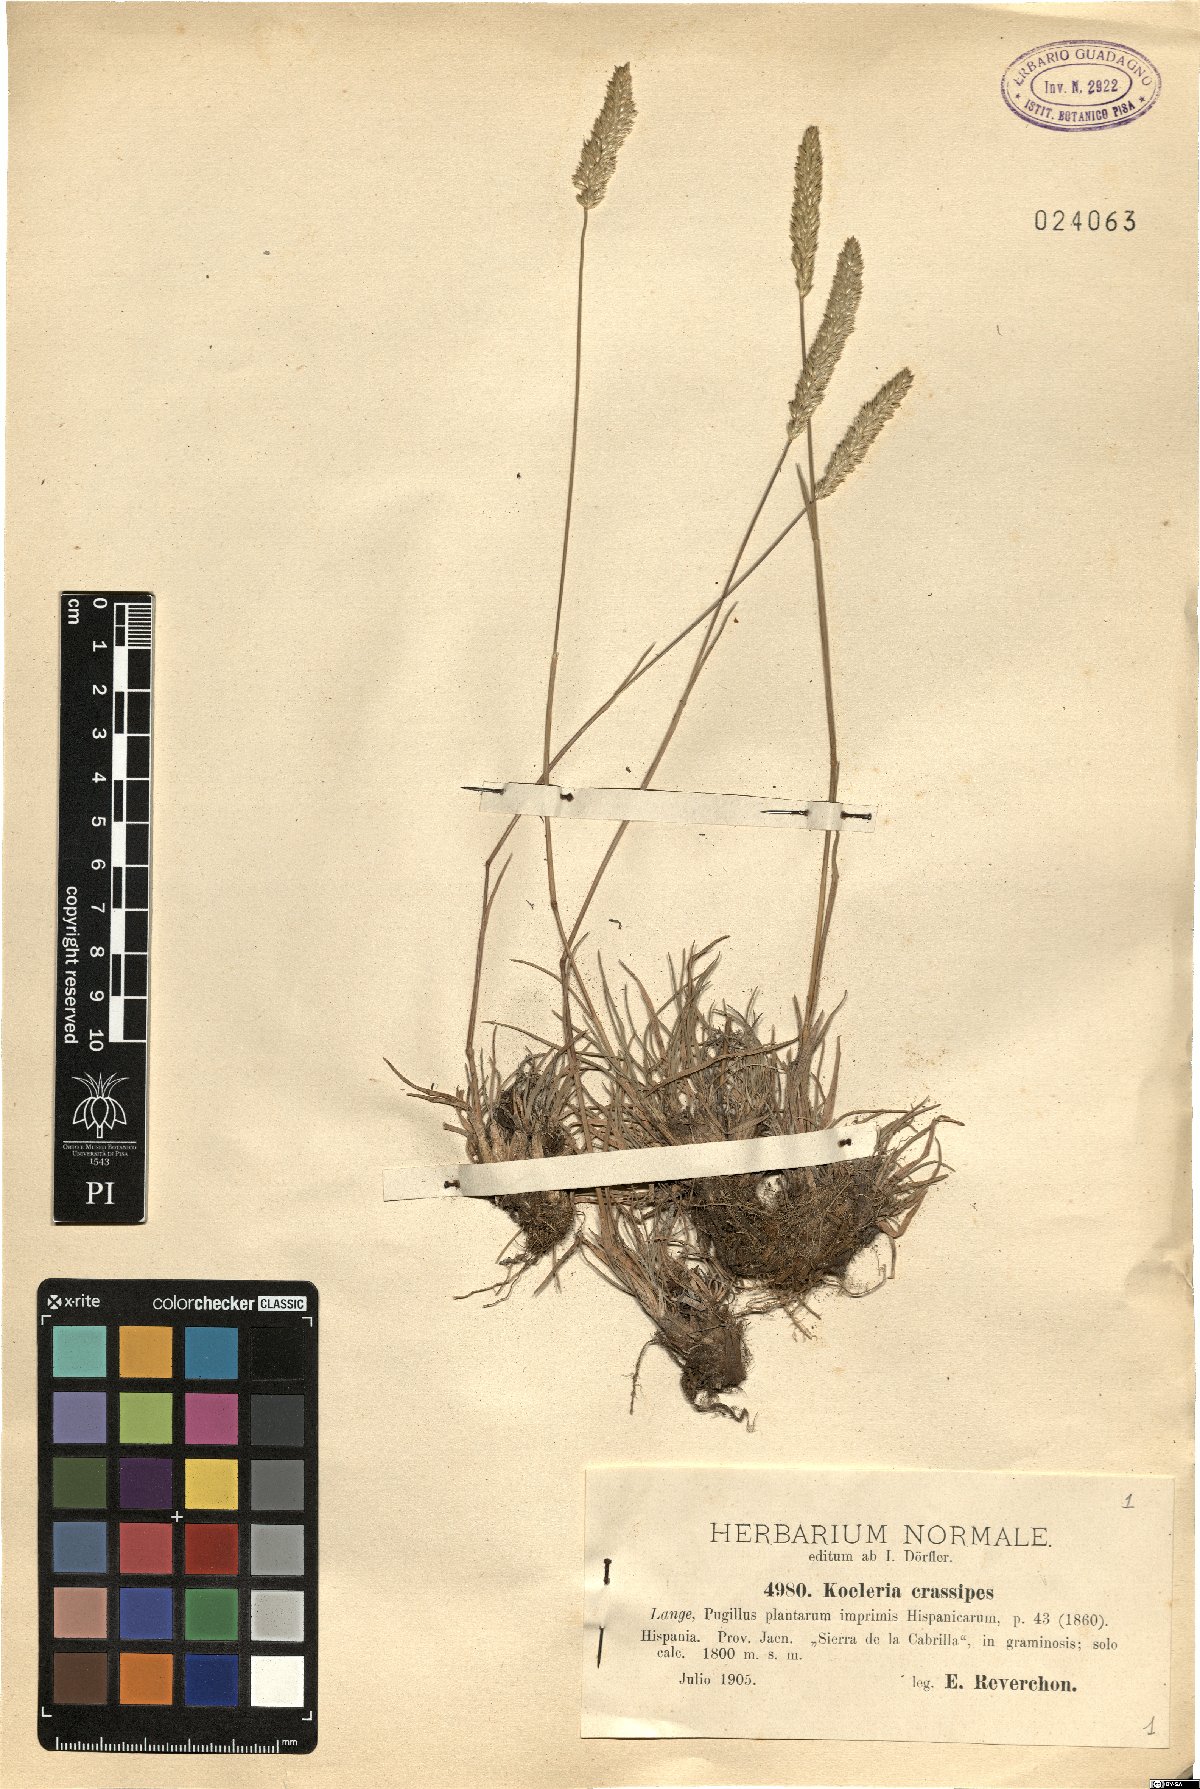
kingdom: Plantae
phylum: Tracheophyta
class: Liliopsida
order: Poales
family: Poaceae
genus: Koeleria
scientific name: Koeleria crassipes
